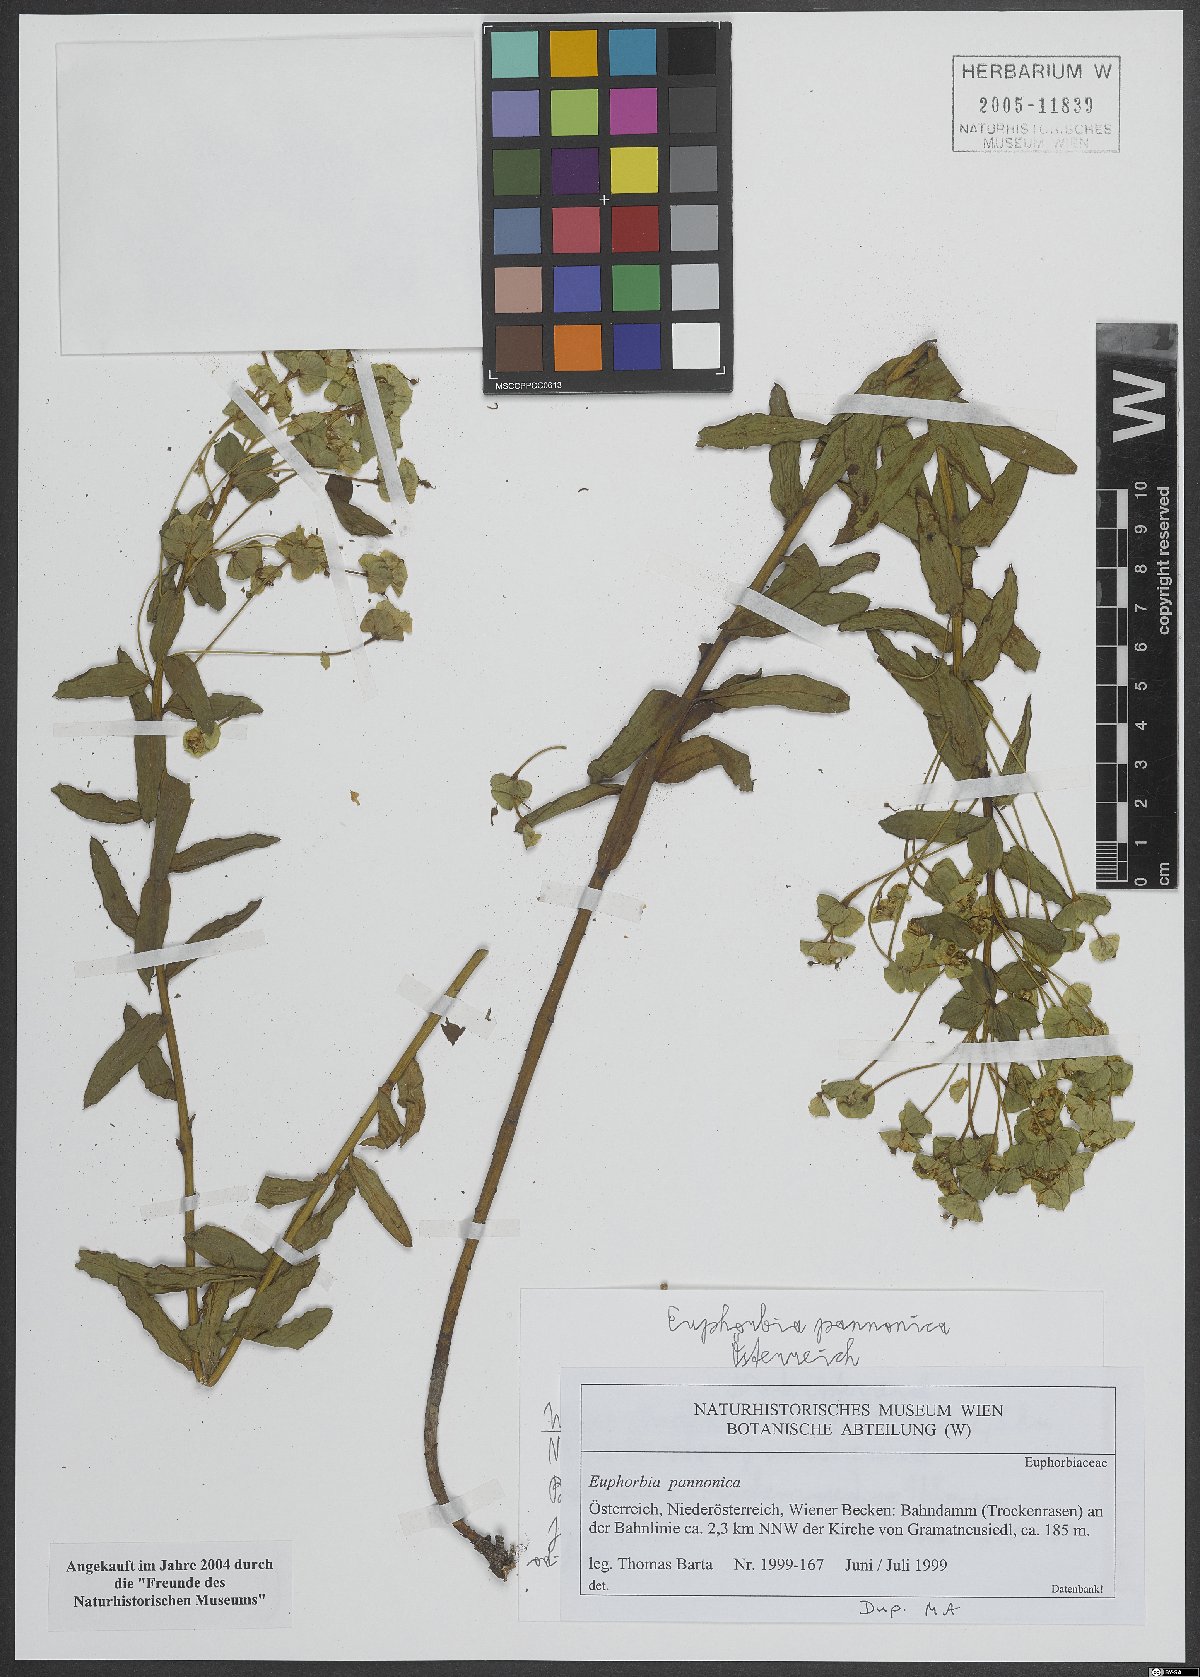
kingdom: Plantae
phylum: Tracheophyta
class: Magnoliopsida
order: Malpighiales
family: Euphorbiaceae
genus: Euphorbia
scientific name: Euphorbia pannonica
